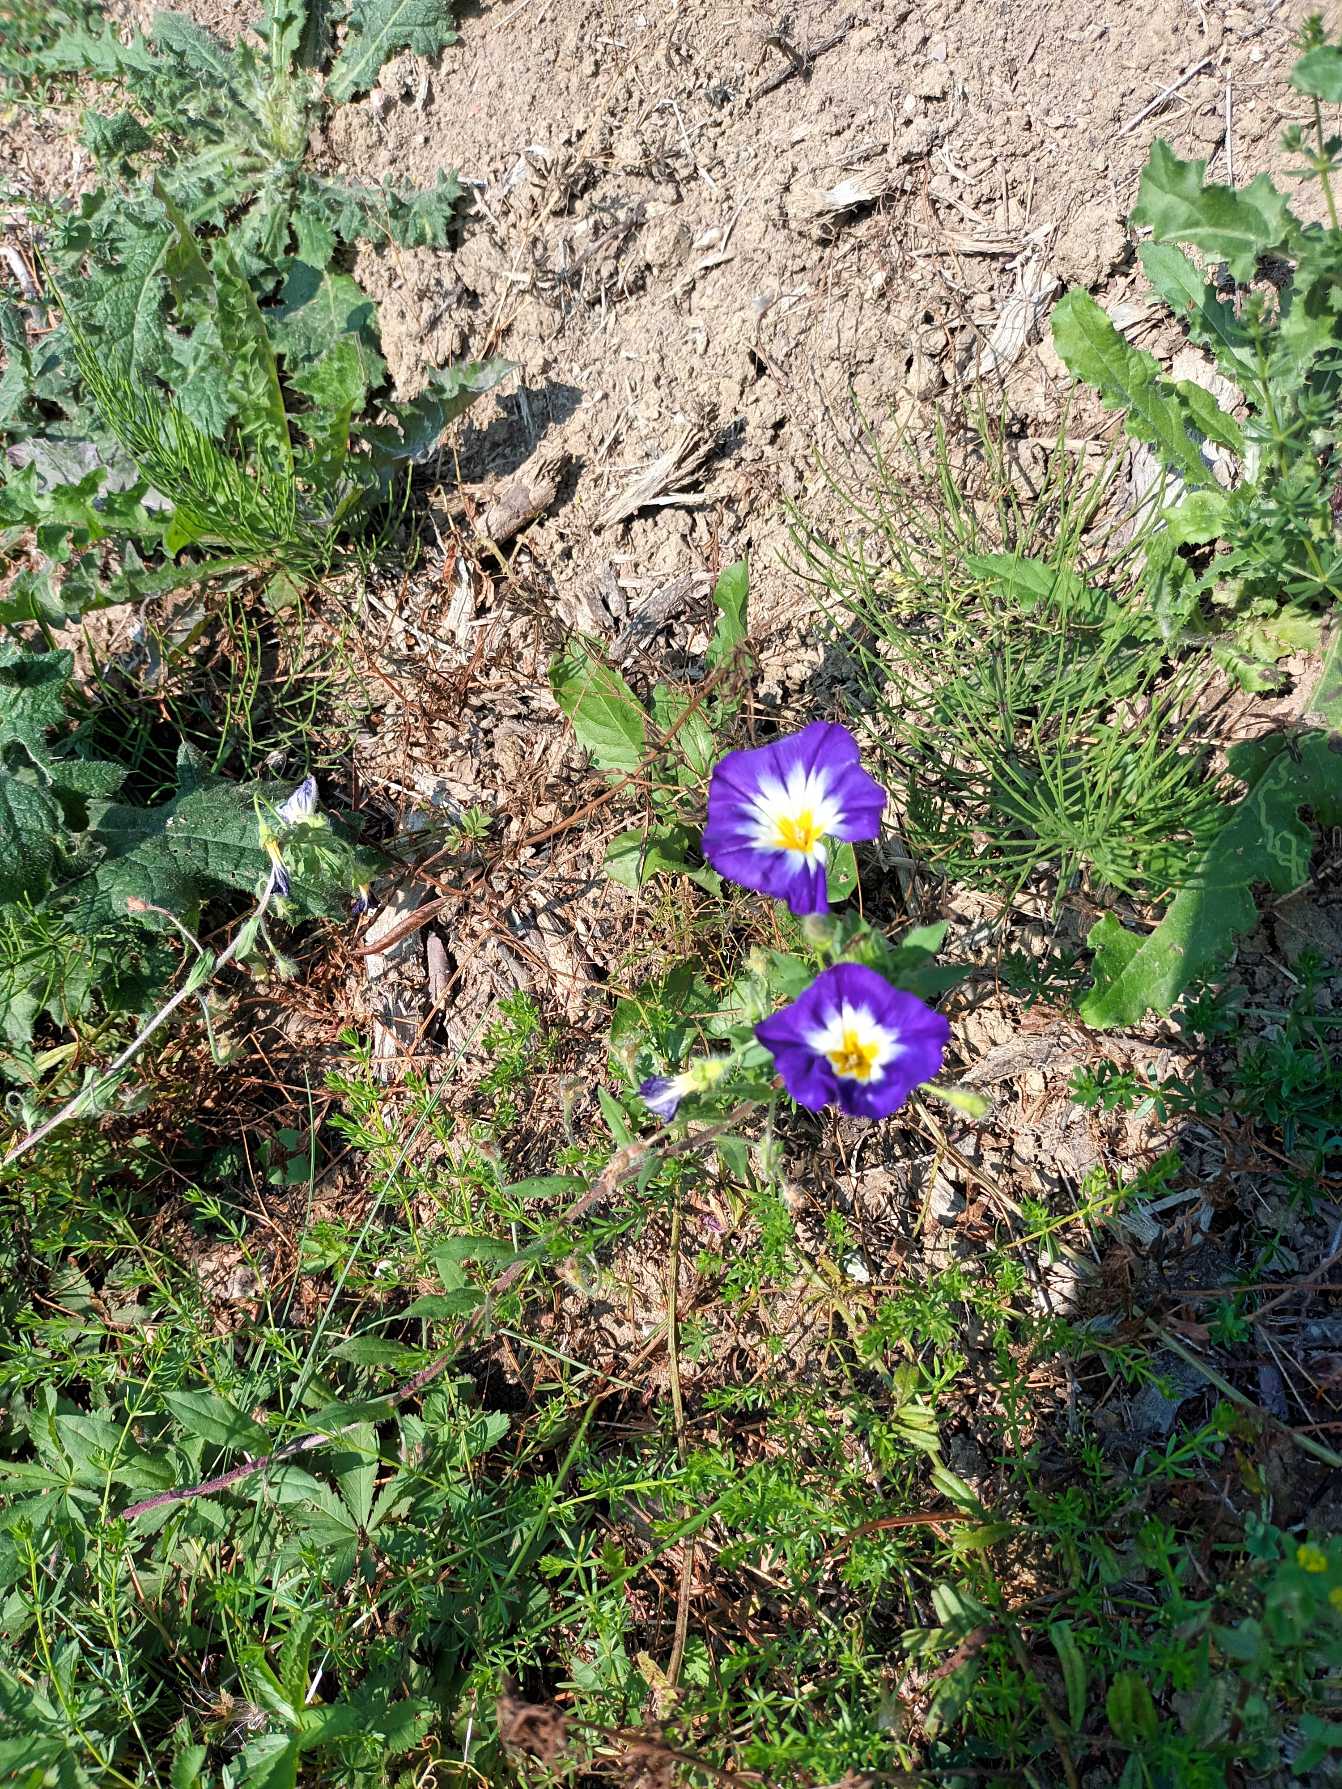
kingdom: Plantae
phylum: Tracheophyta
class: Magnoliopsida
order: Solanales
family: Convolvulaceae
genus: Convolvulus
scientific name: Convolvulus tricolor
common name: Jomfruskørt
